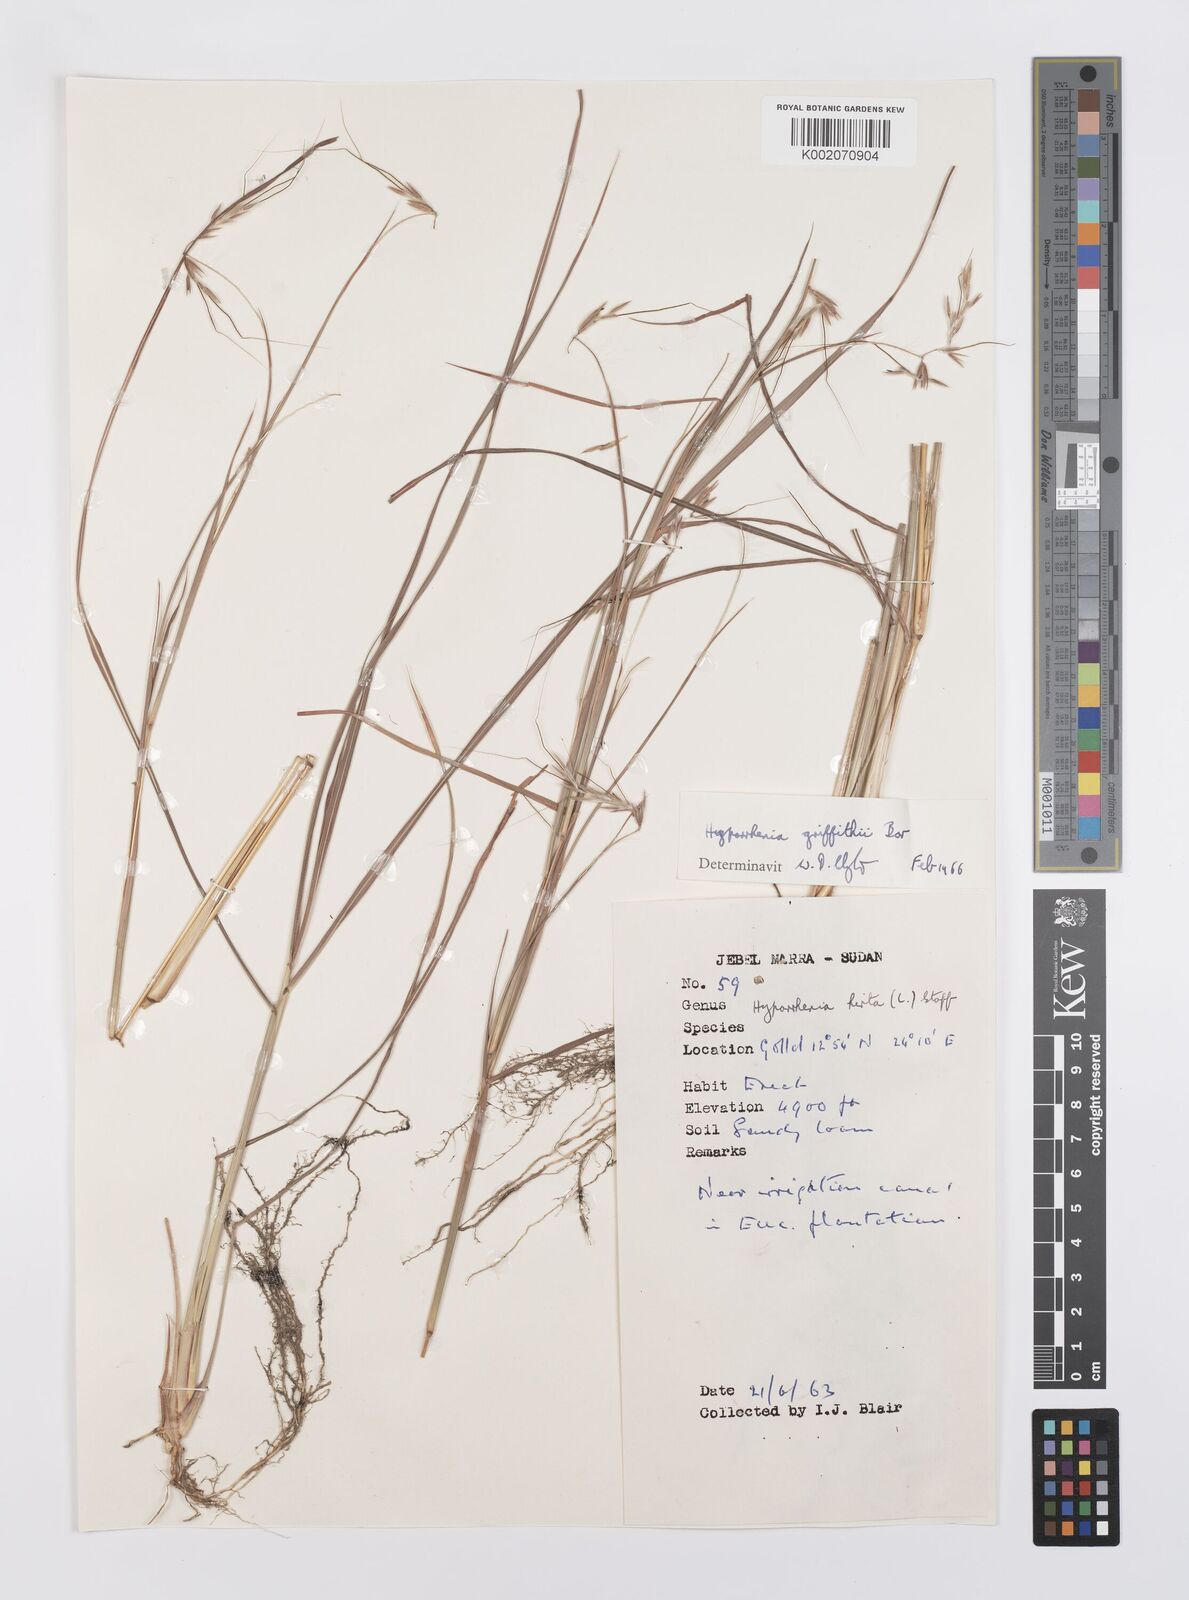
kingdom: Plantae
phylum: Tracheophyta
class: Liliopsida
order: Poales
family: Poaceae
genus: Hyparrhenia
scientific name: Hyparrhenia griffithii
